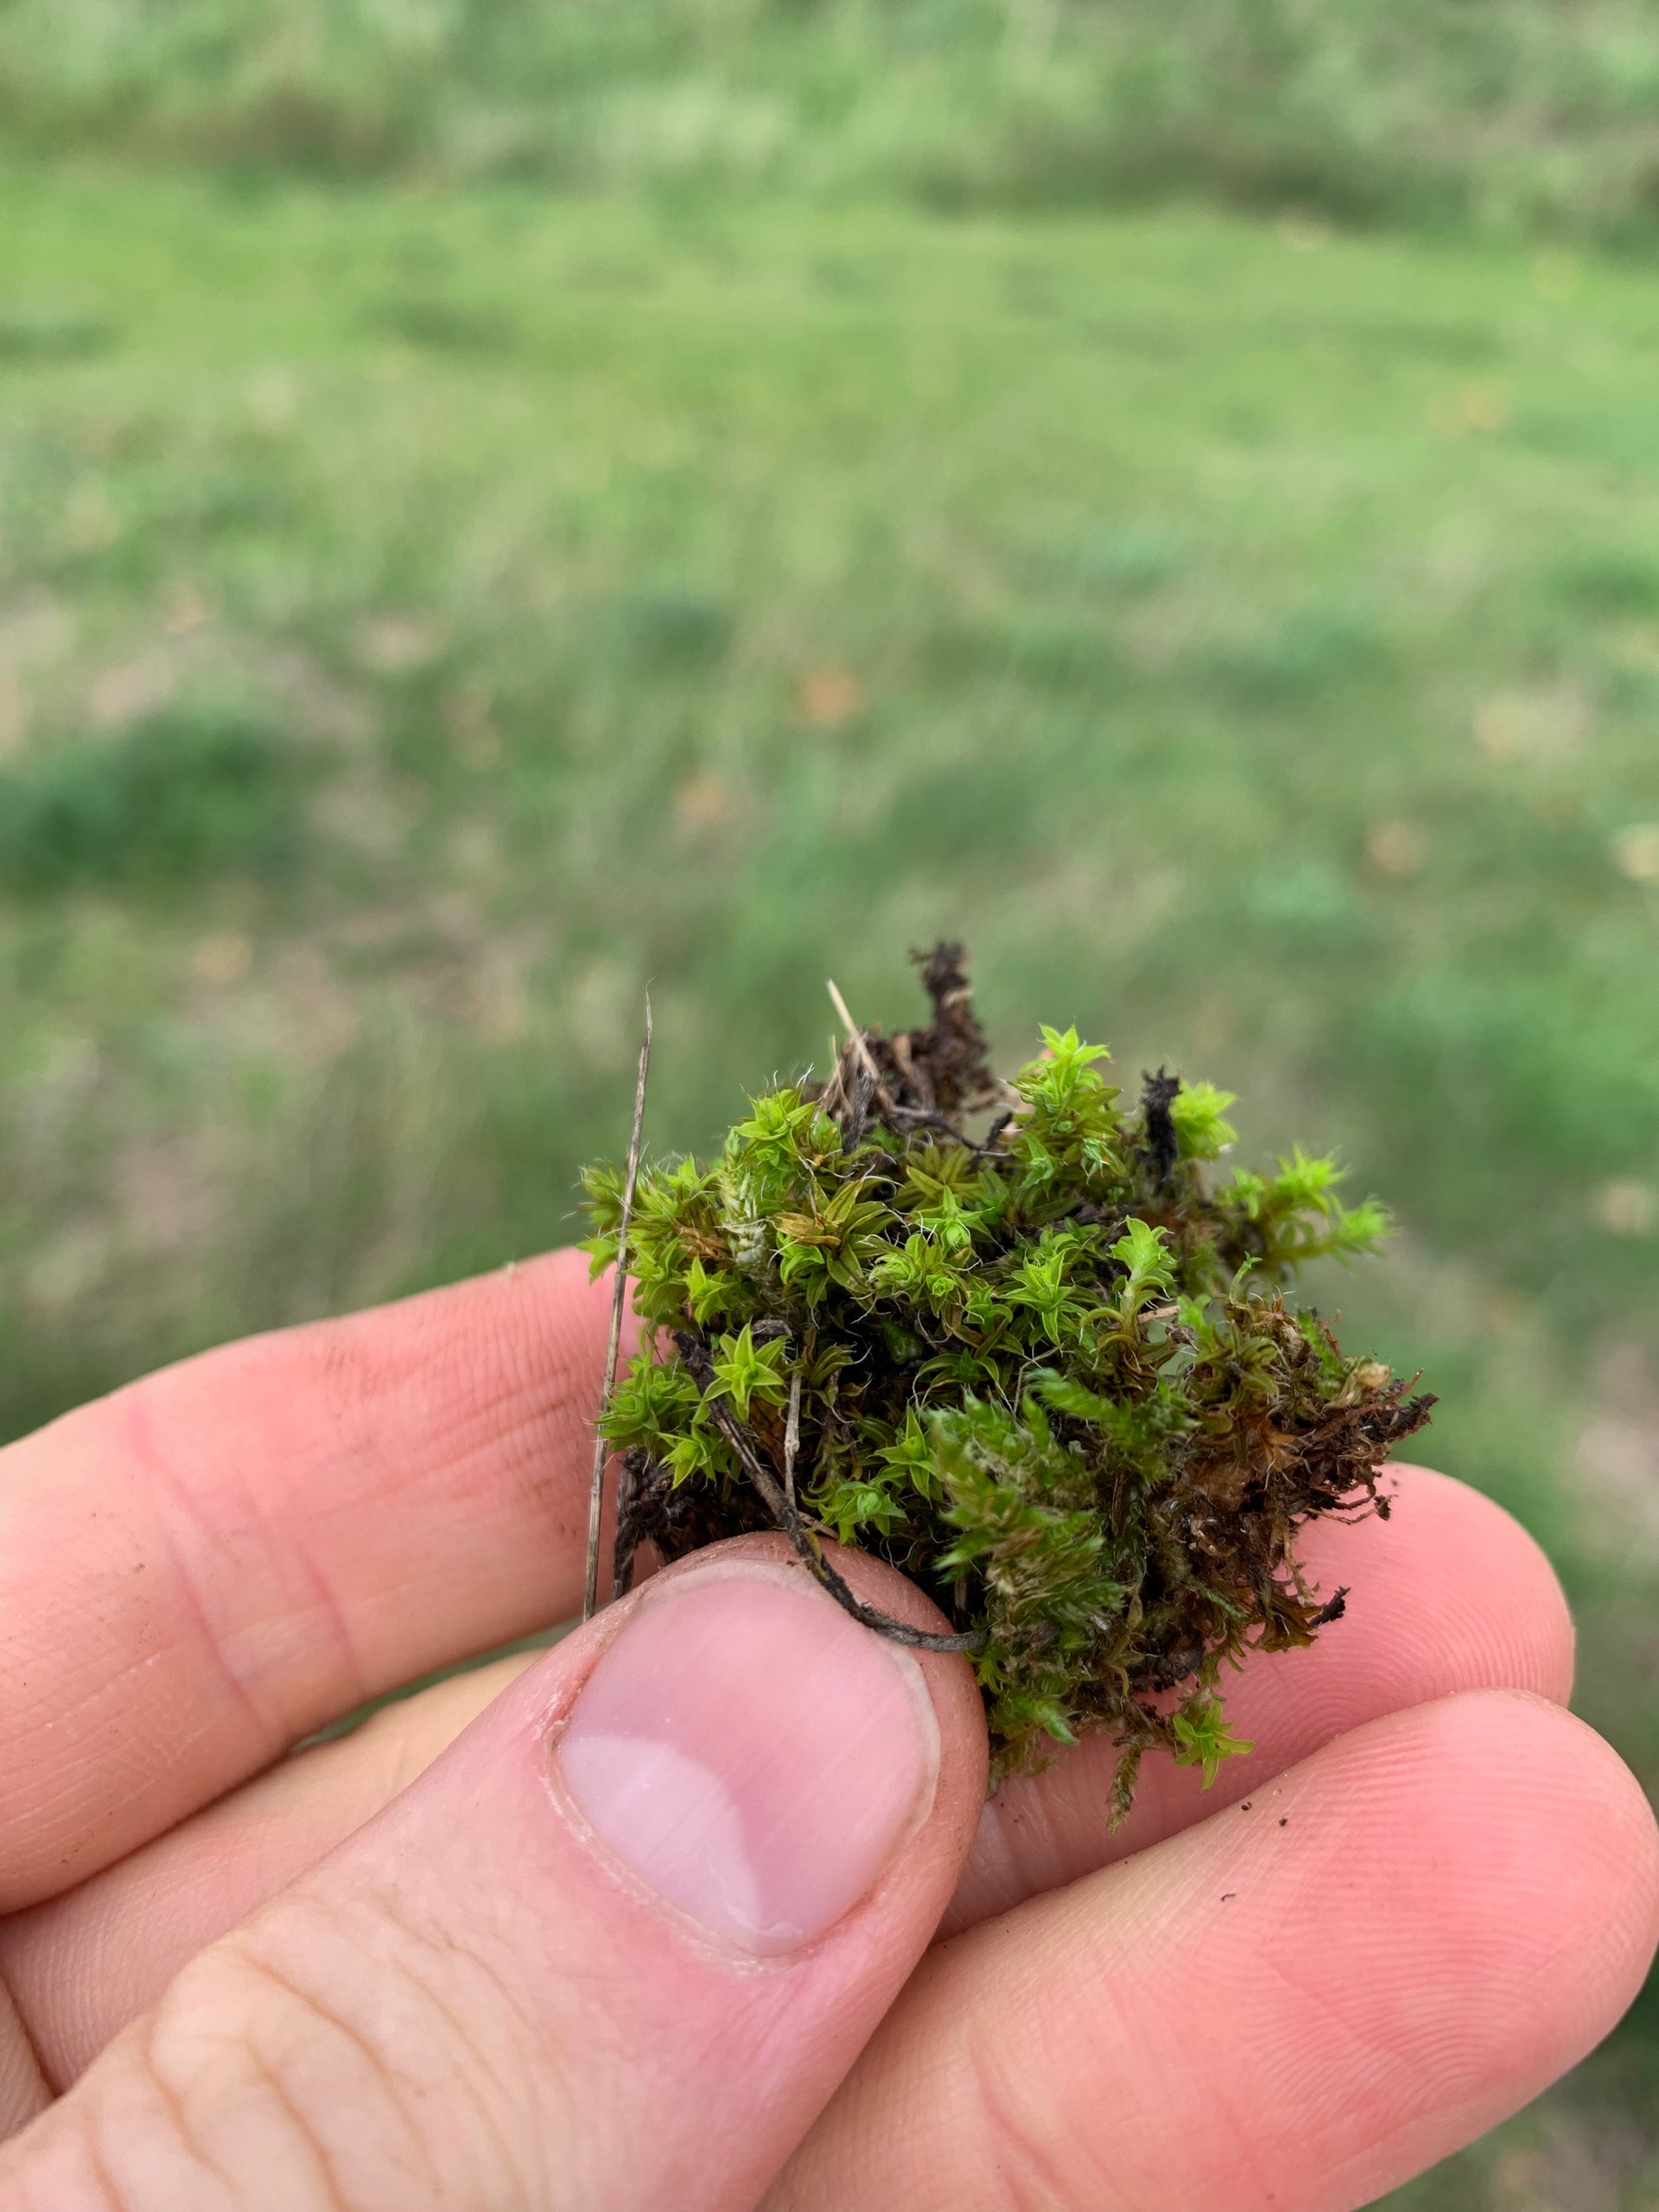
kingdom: Plantae
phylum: Bryophyta
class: Bryopsida
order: Pottiales
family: Pottiaceae
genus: Syntrichia
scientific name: Syntrichia
